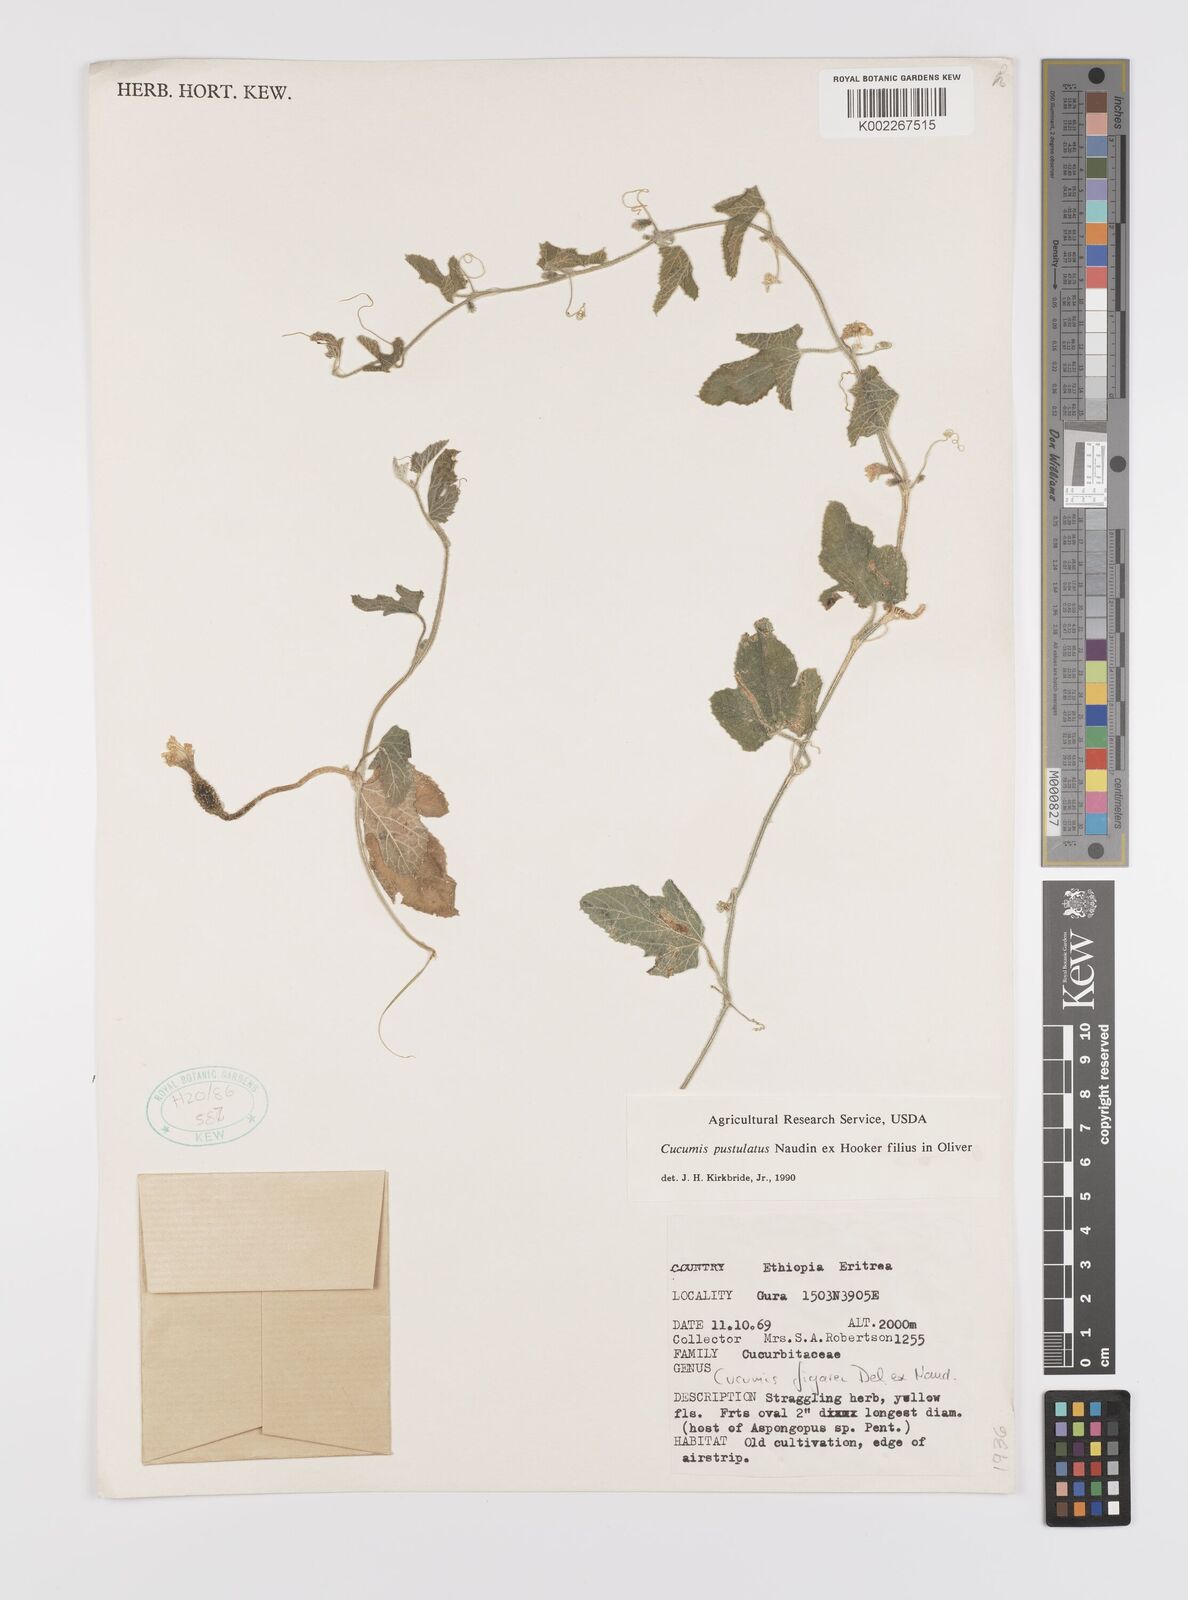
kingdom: Plantae
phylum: Tracheophyta
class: Magnoliopsida
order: Cucurbitales
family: Cucurbitaceae
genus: Cucumis
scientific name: Cucumis pustulatus
